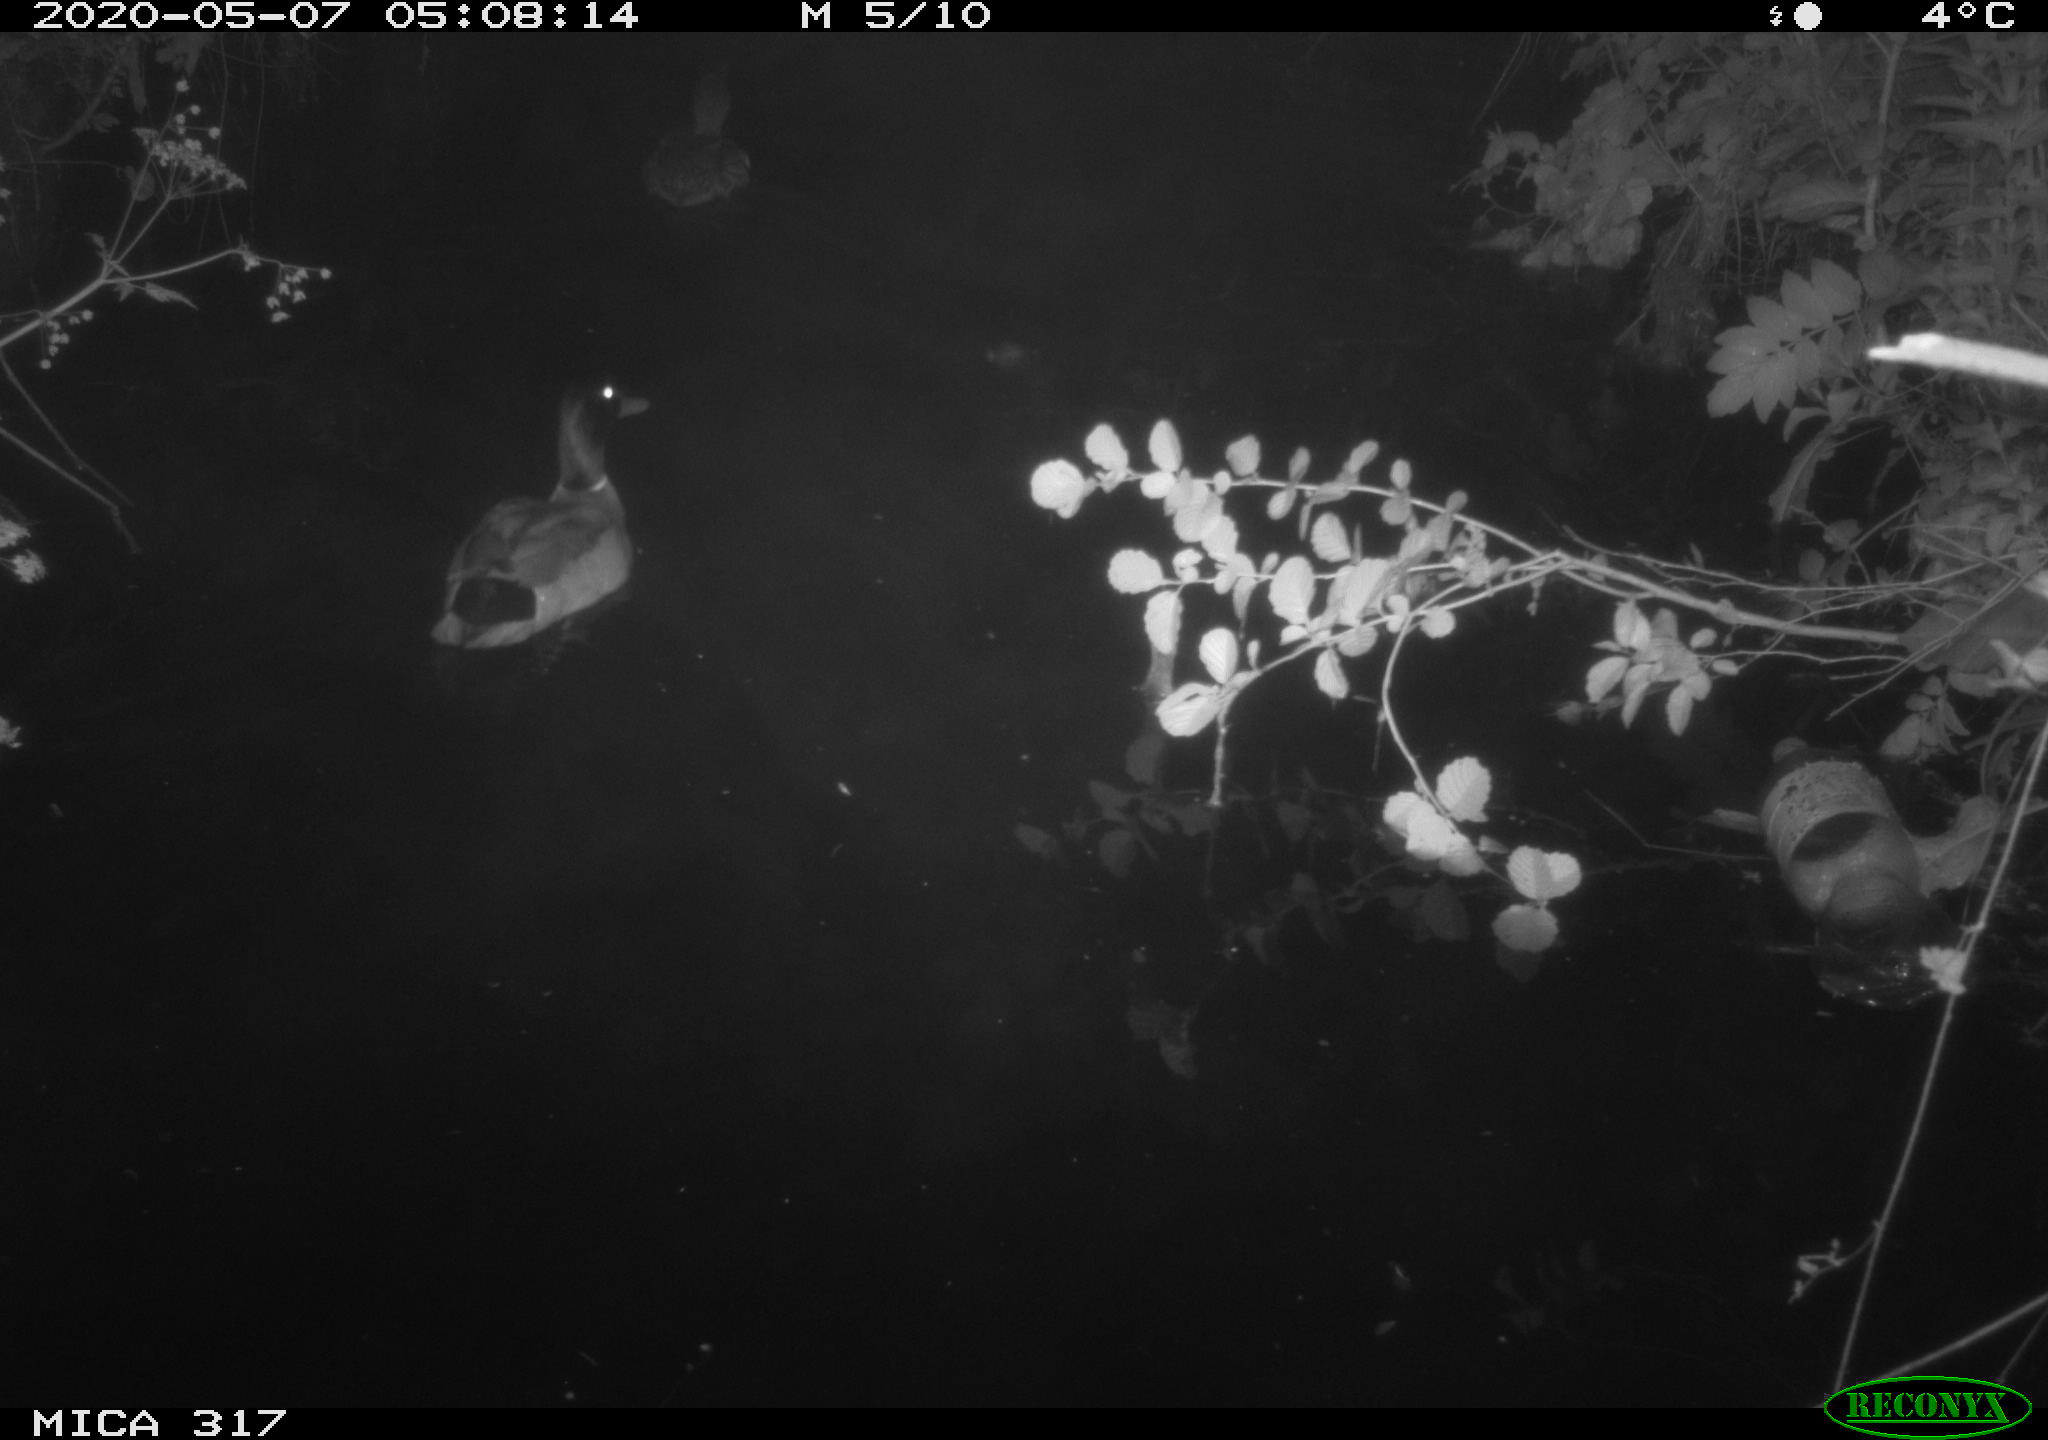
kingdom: Animalia
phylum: Chordata
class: Aves
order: Anseriformes
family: Anatidae
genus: Anas
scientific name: Anas platyrhynchos
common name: Mallard
